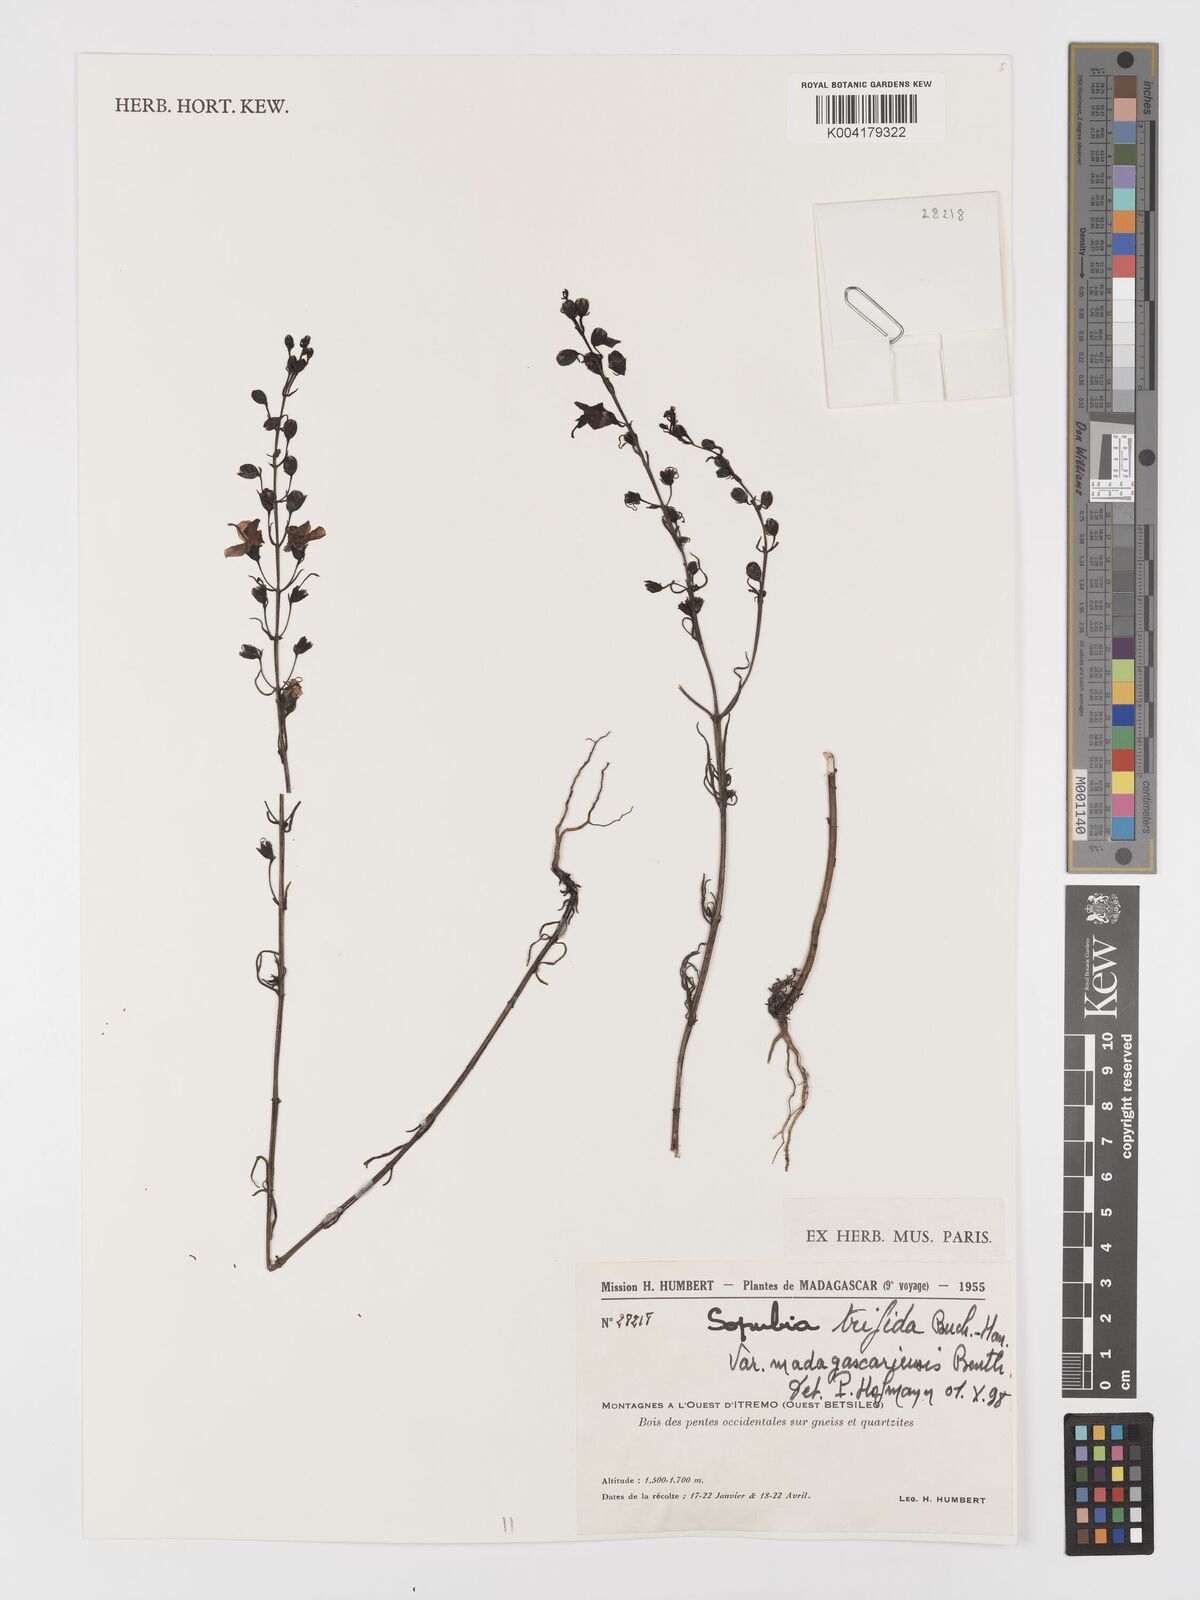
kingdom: Plantae
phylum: Tracheophyta
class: Magnoliopsida
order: Lamiales
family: Orobanchaceae
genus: Sopubia
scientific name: Sopubia trifida
